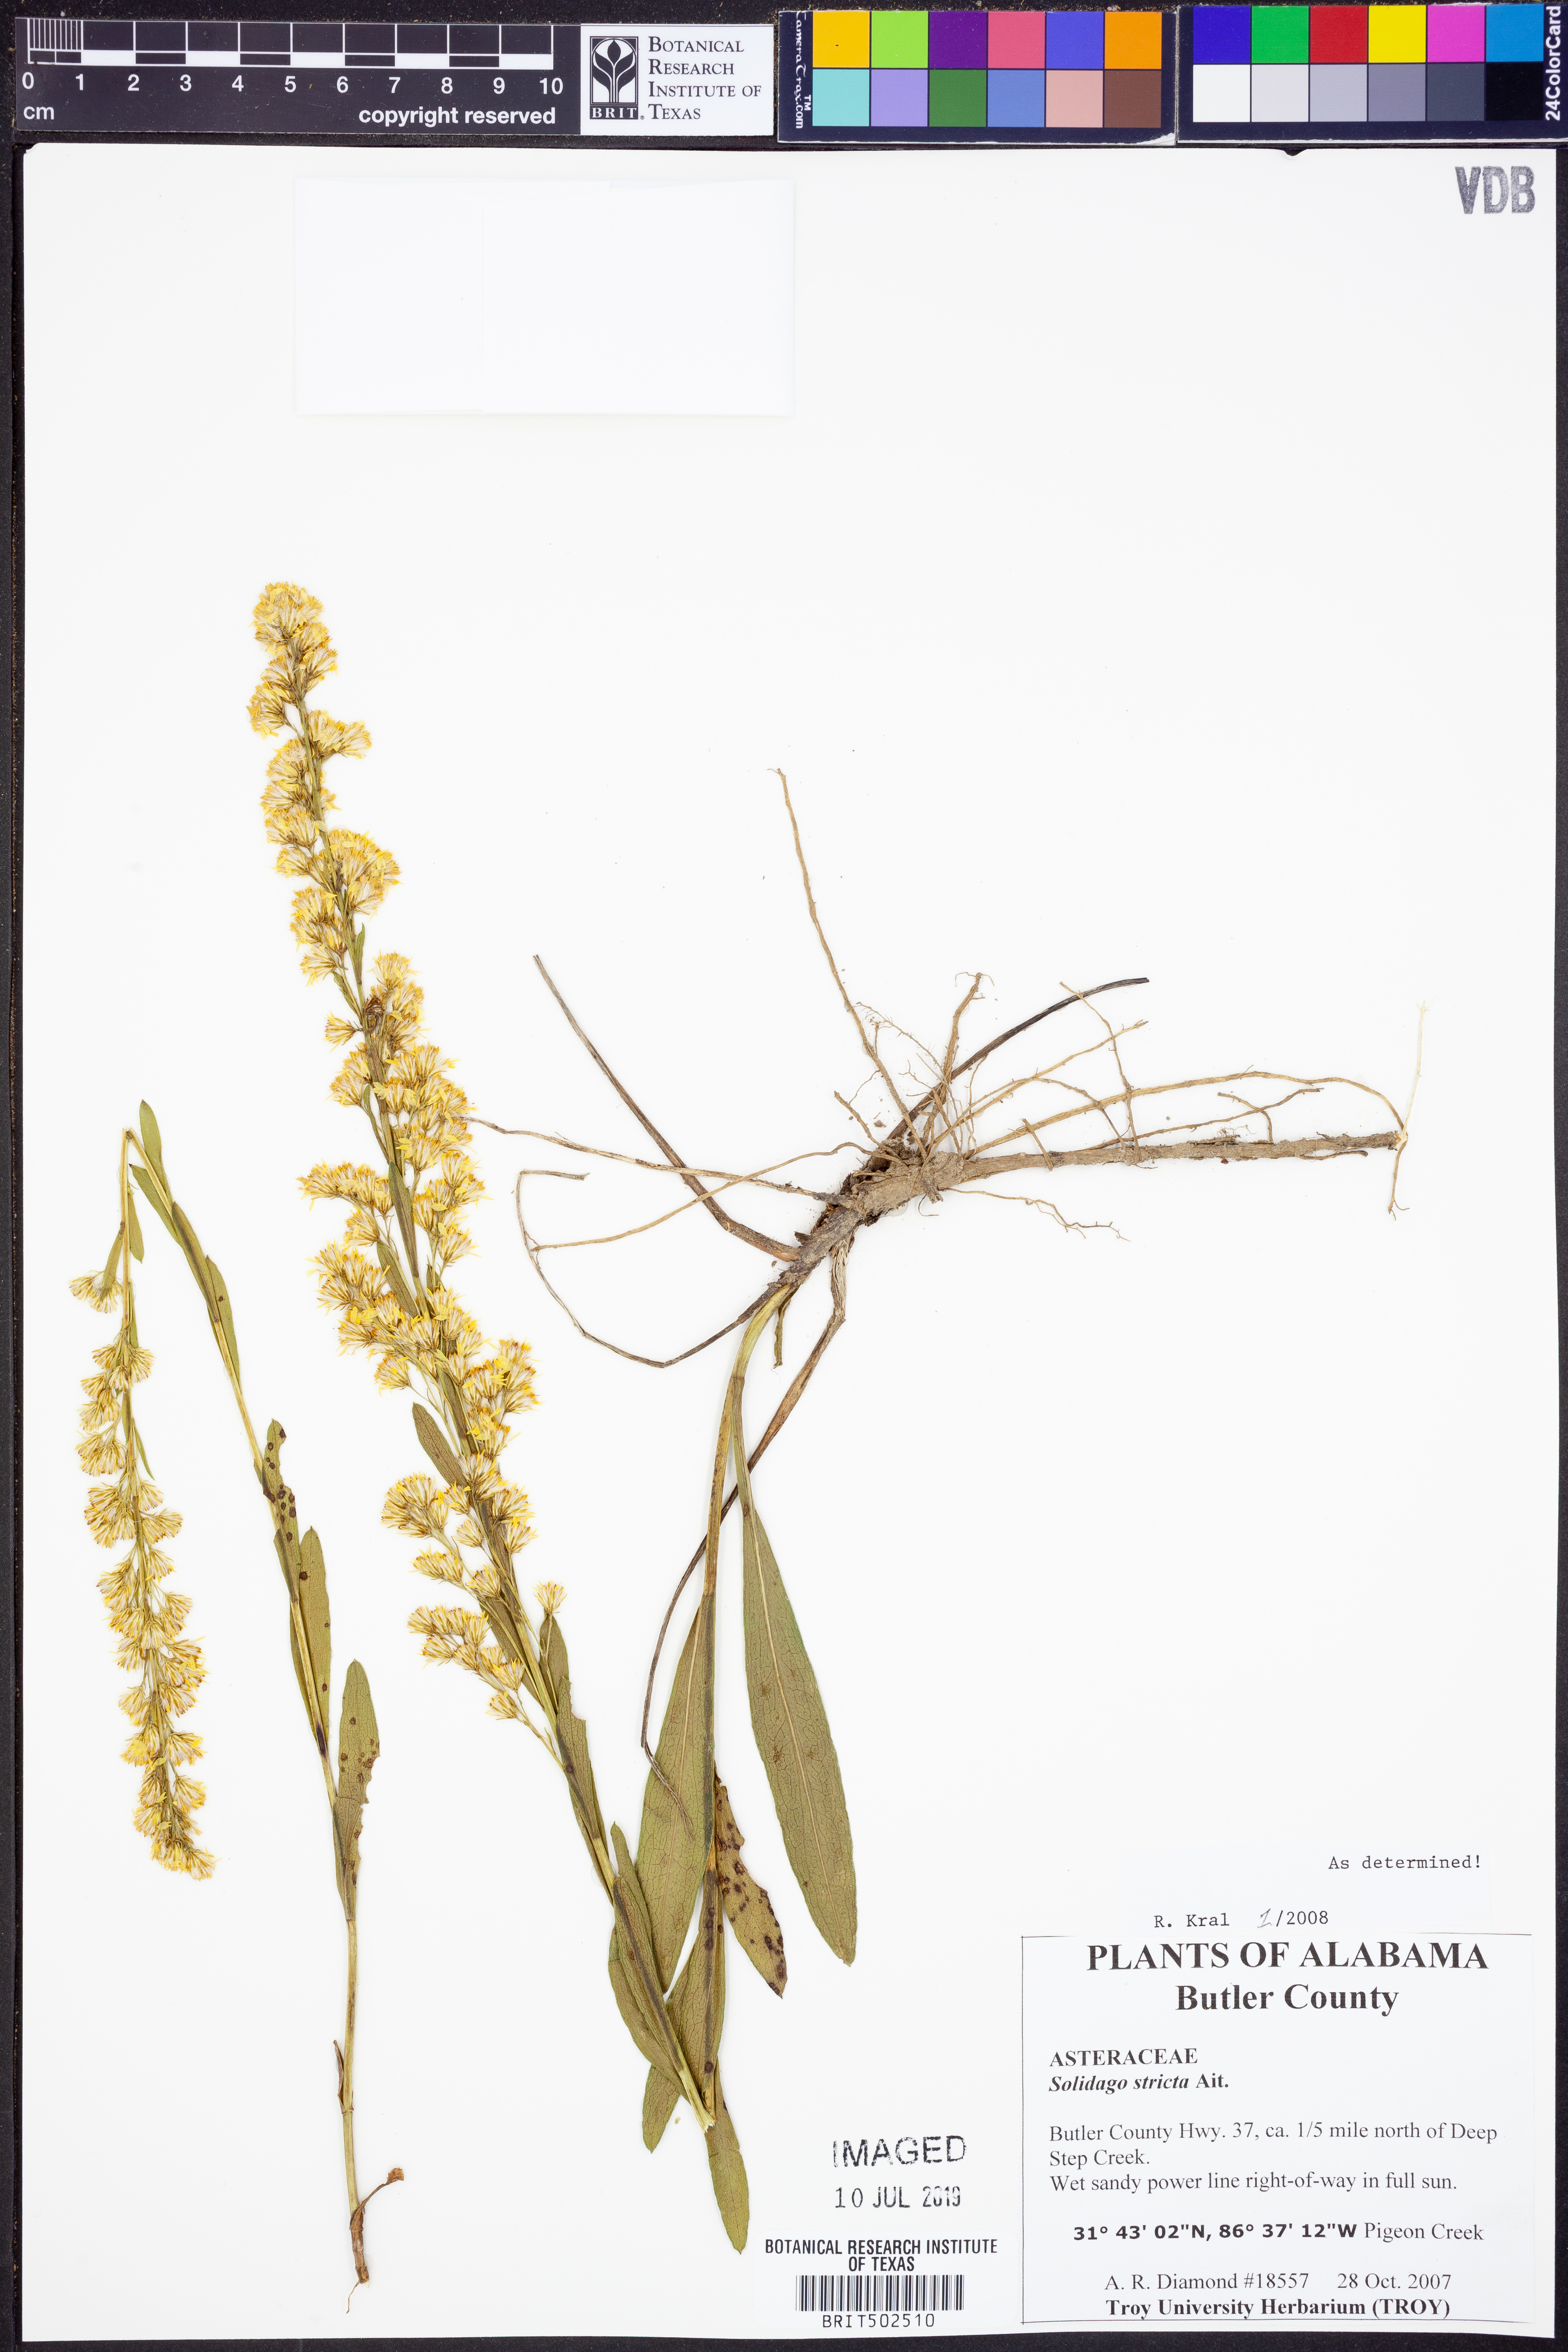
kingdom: Plantae
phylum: Tracheophyta
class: Magnoliopsida
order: Asterales
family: Asteraceae
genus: Solidago
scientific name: Solidago stricta
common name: Pine barren bog goldenrod
